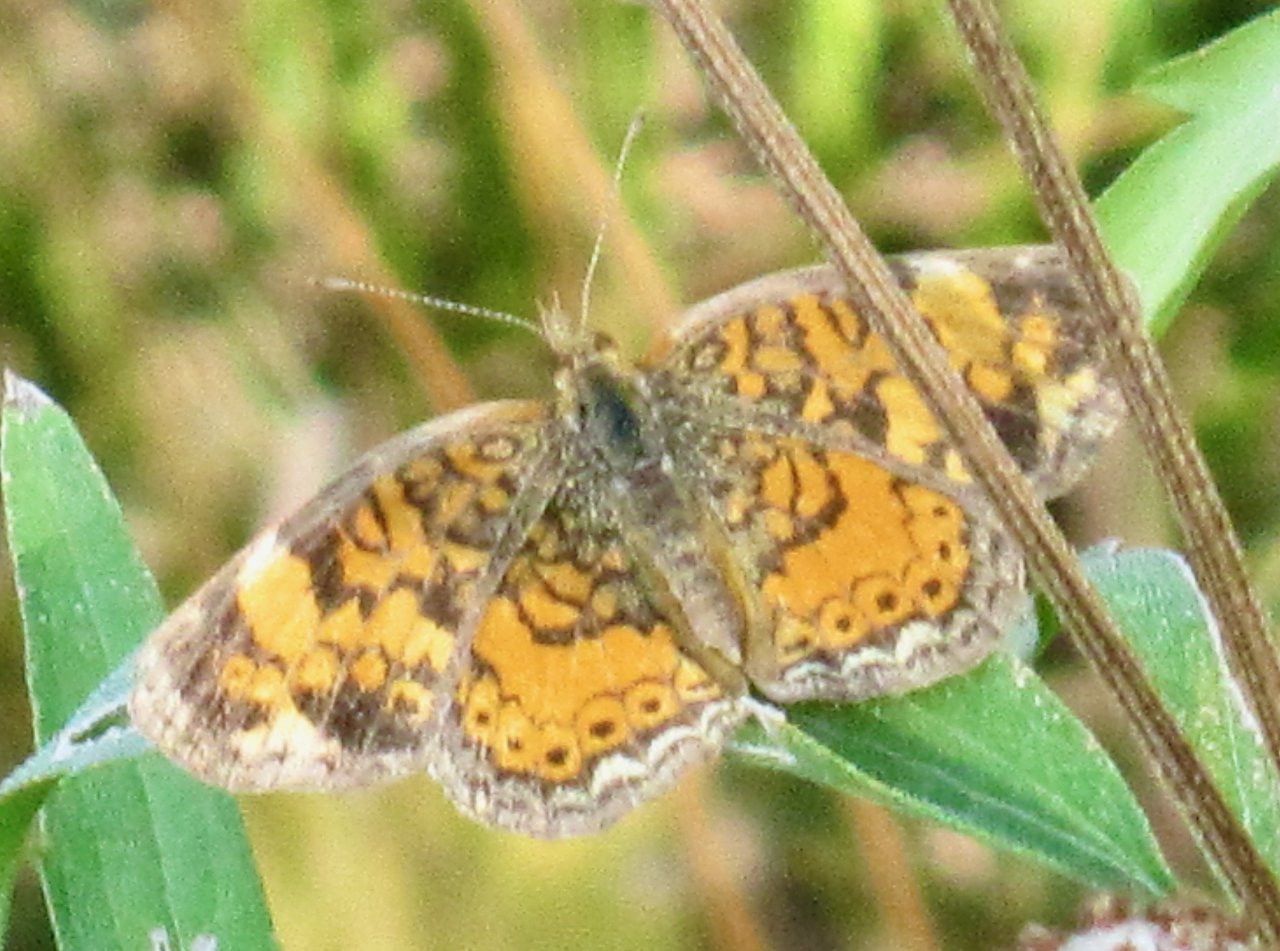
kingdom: Animalia
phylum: Arthropoda
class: Insecta
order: Lepidoptera
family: Nymphalidae
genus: Phyciodes
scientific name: Phyciodes tharos
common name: Pearl Crescent
